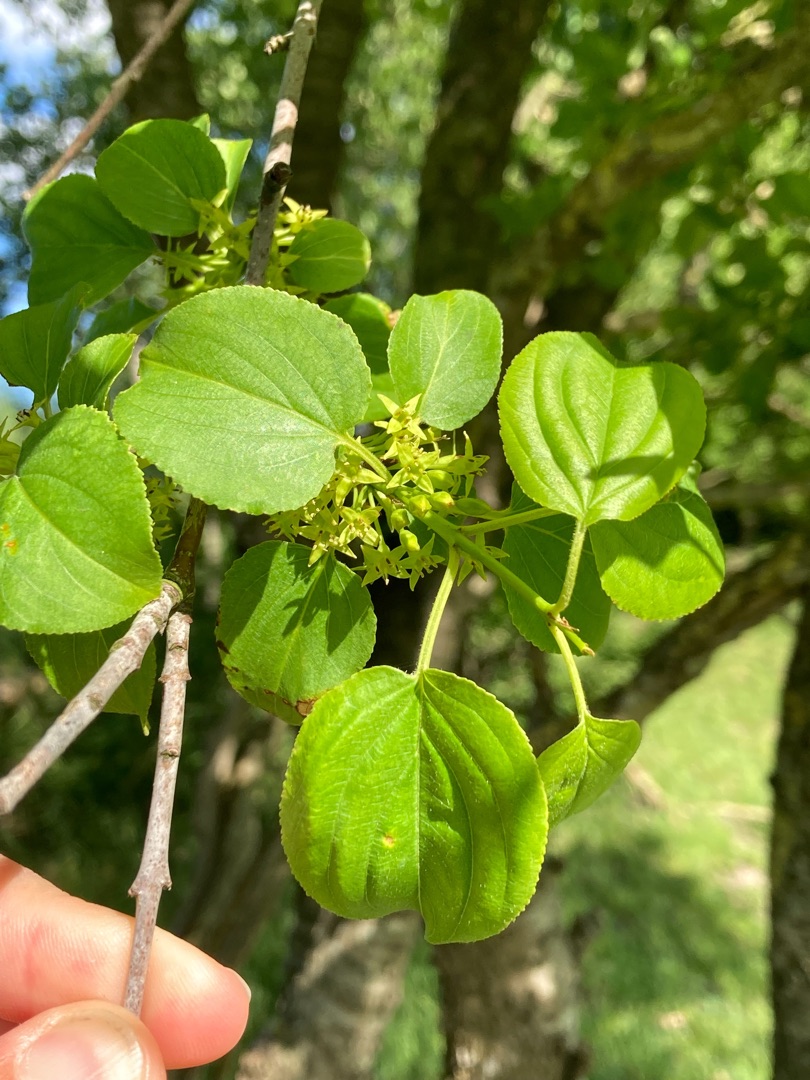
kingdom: Plantae
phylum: Tracheophyta
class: Magnoliopsida
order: Rosales
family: Rhamnaceae
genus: Rhamnus
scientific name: Rhamnus cathartica
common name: Vrietorn
